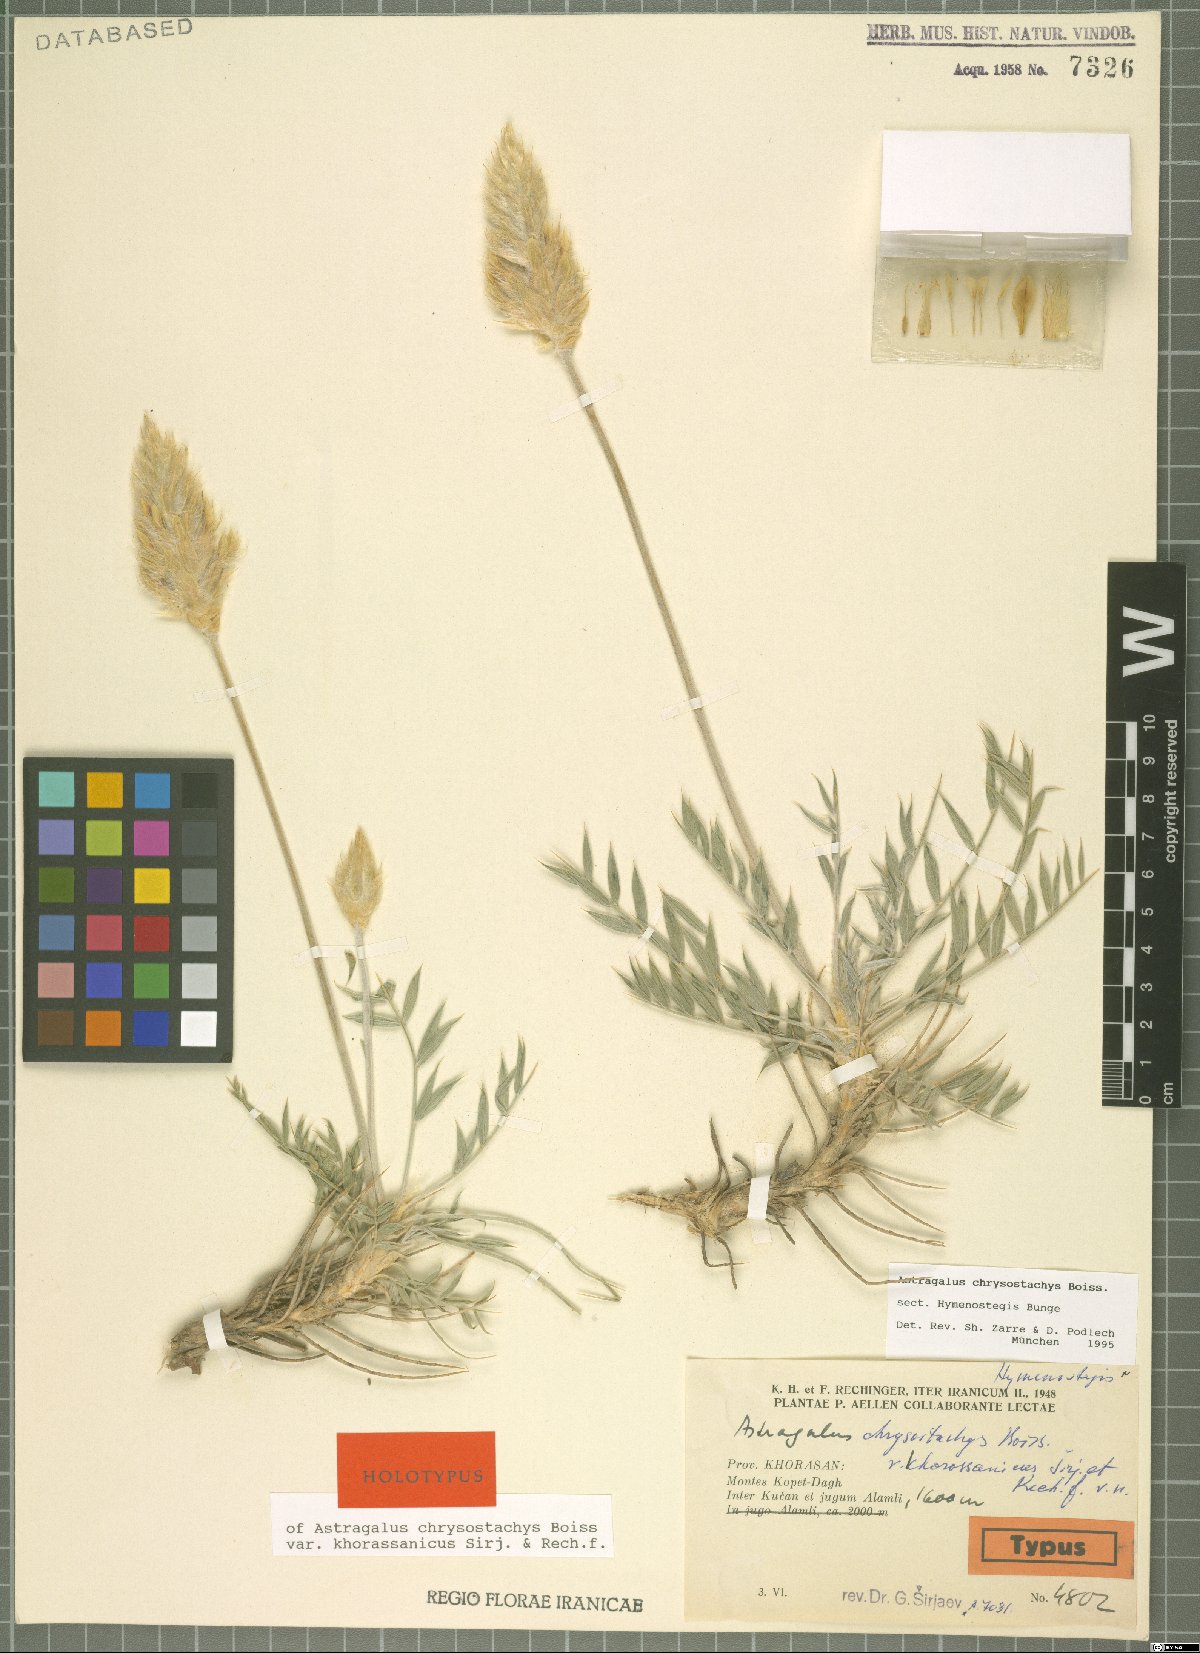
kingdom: Plantae
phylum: Tracheophyta
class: Magnoliopsida
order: Fabales
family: Fabaceae
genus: Astragalus
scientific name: Astragalus chrysostachys
